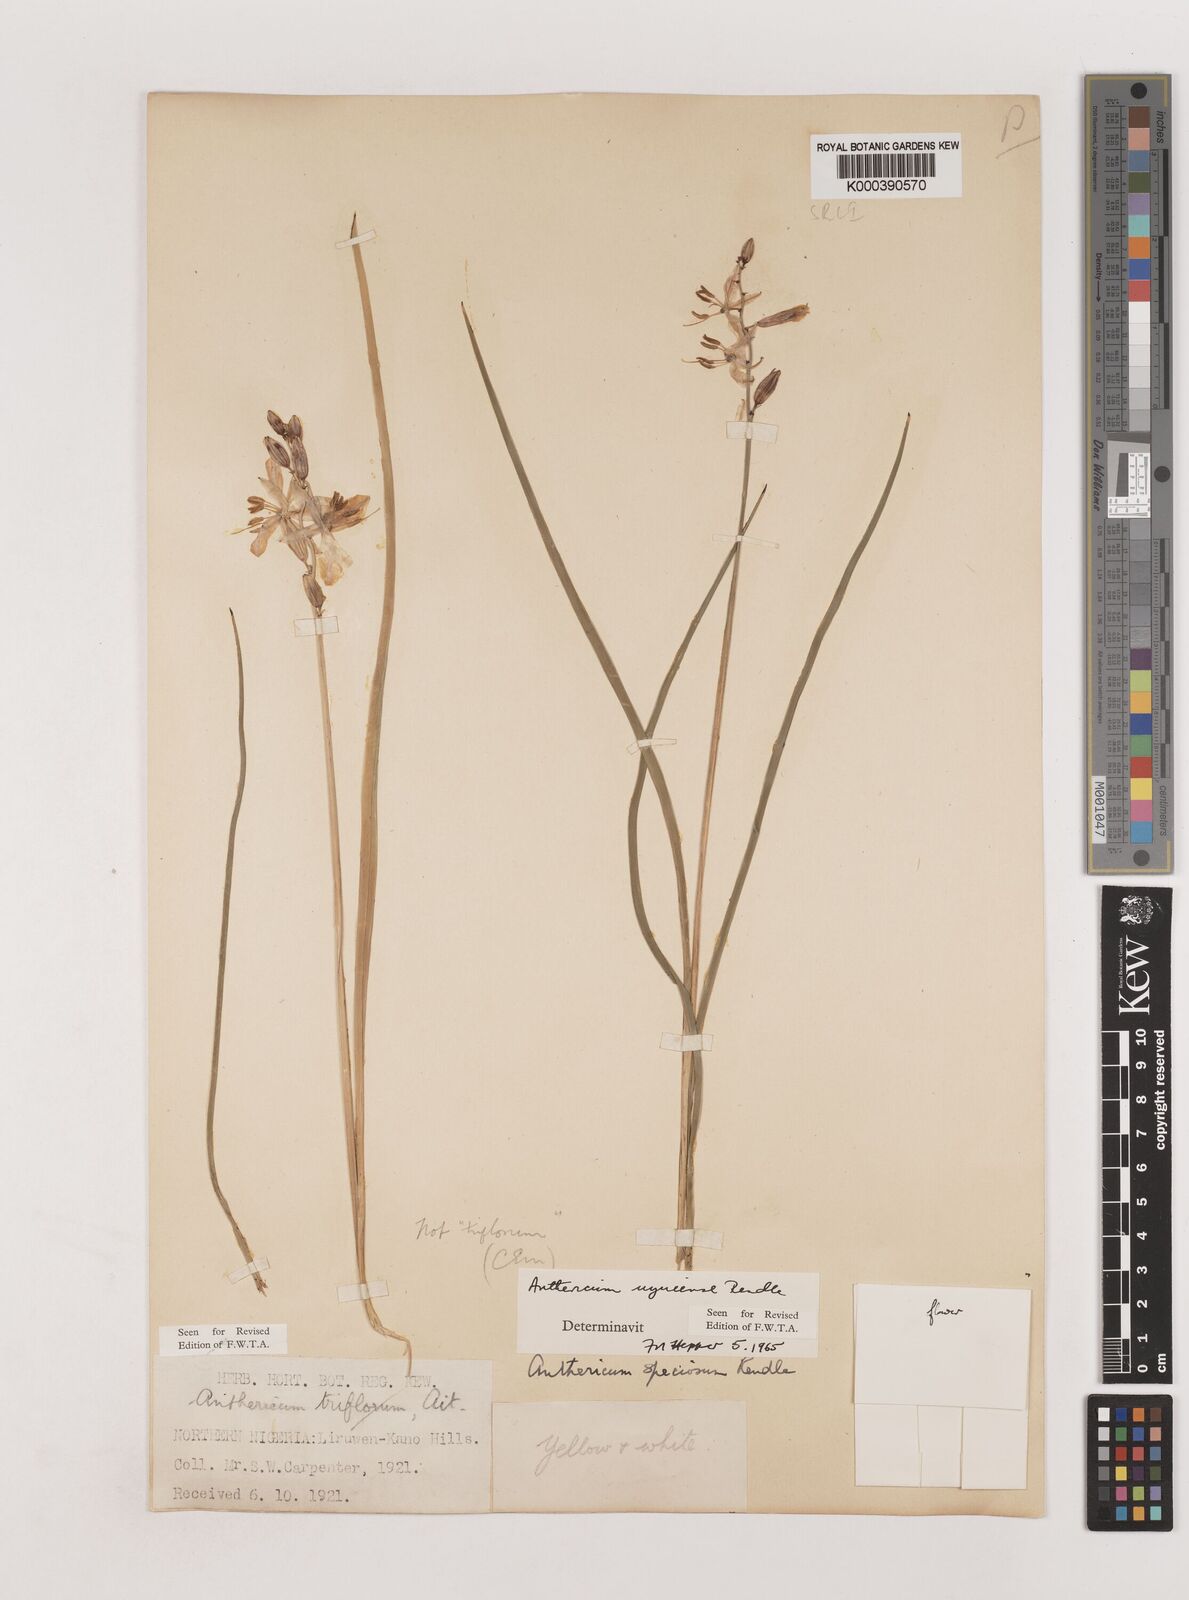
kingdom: Plantae
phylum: Tracheophyta
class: Liliopsida
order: Asparagales
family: Asparagaceae
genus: Chlorophytum
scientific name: Chlorophytum cameronii
